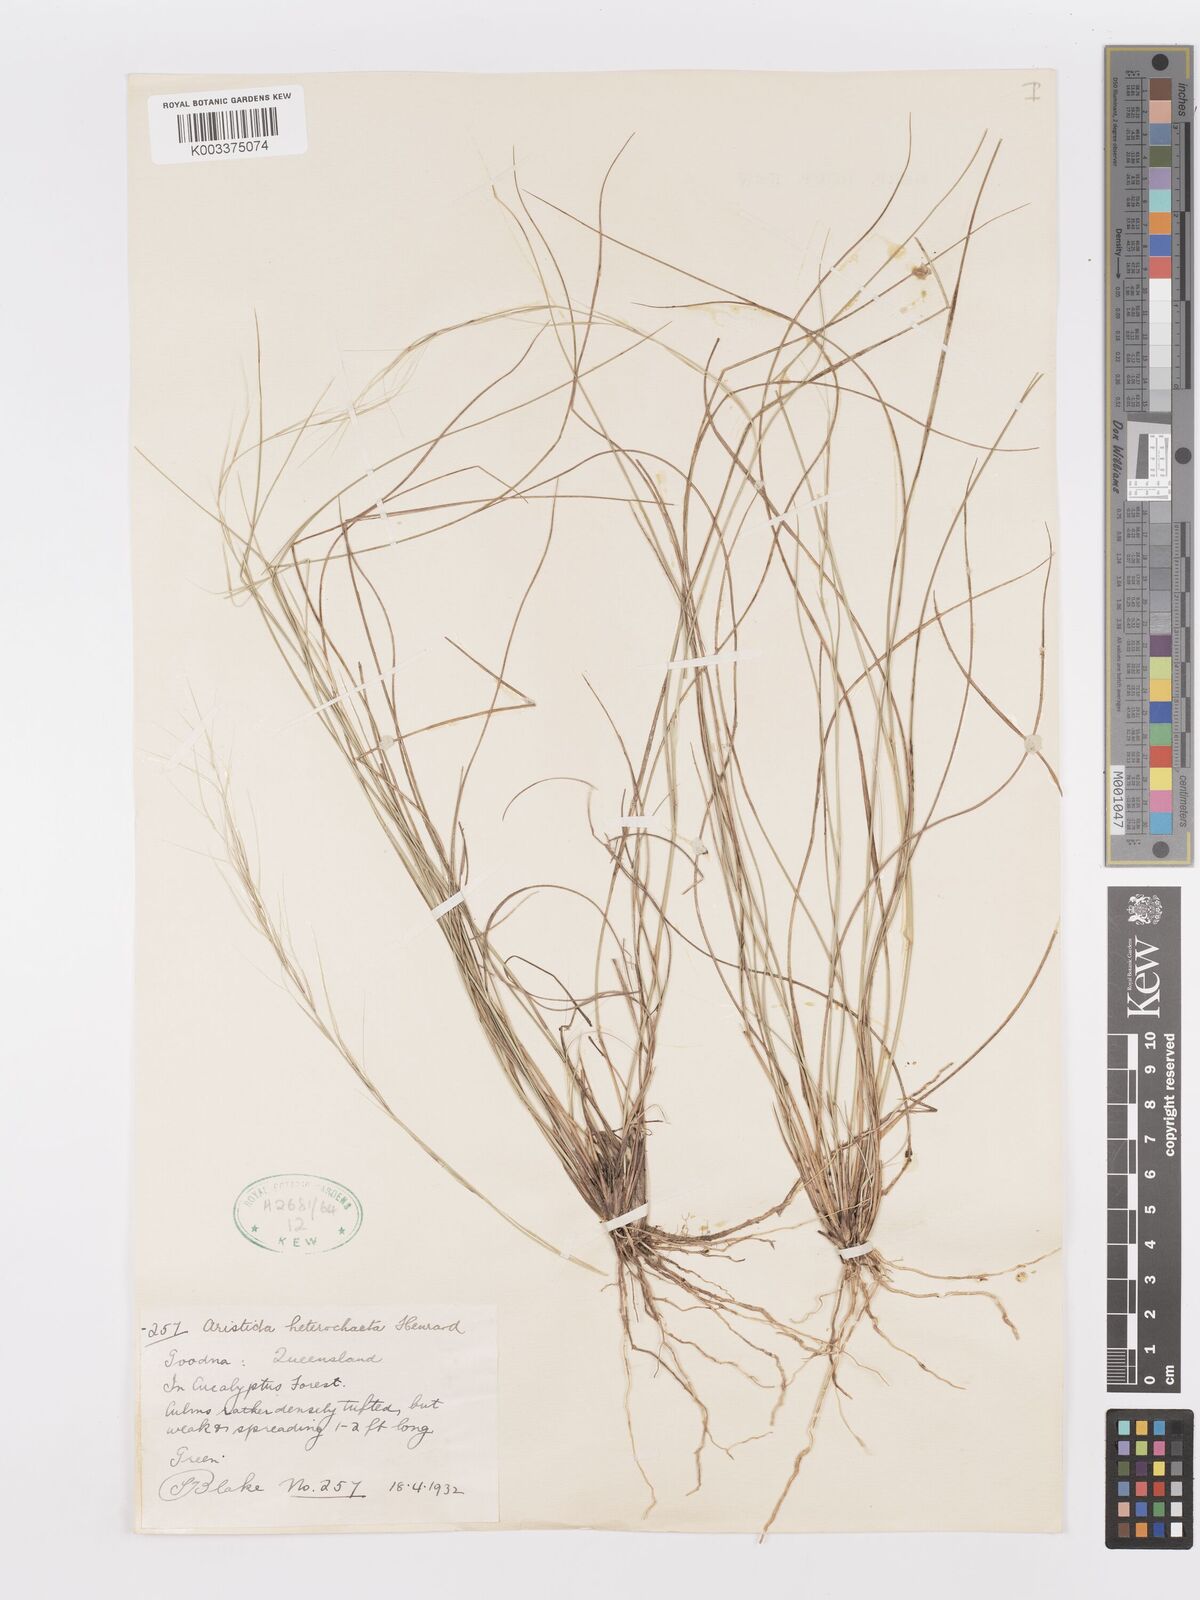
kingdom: Plantae
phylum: Tracheophyta
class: Liliopsida
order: Poales
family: Poaceae
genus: Aristida
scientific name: Aristida warburgii
